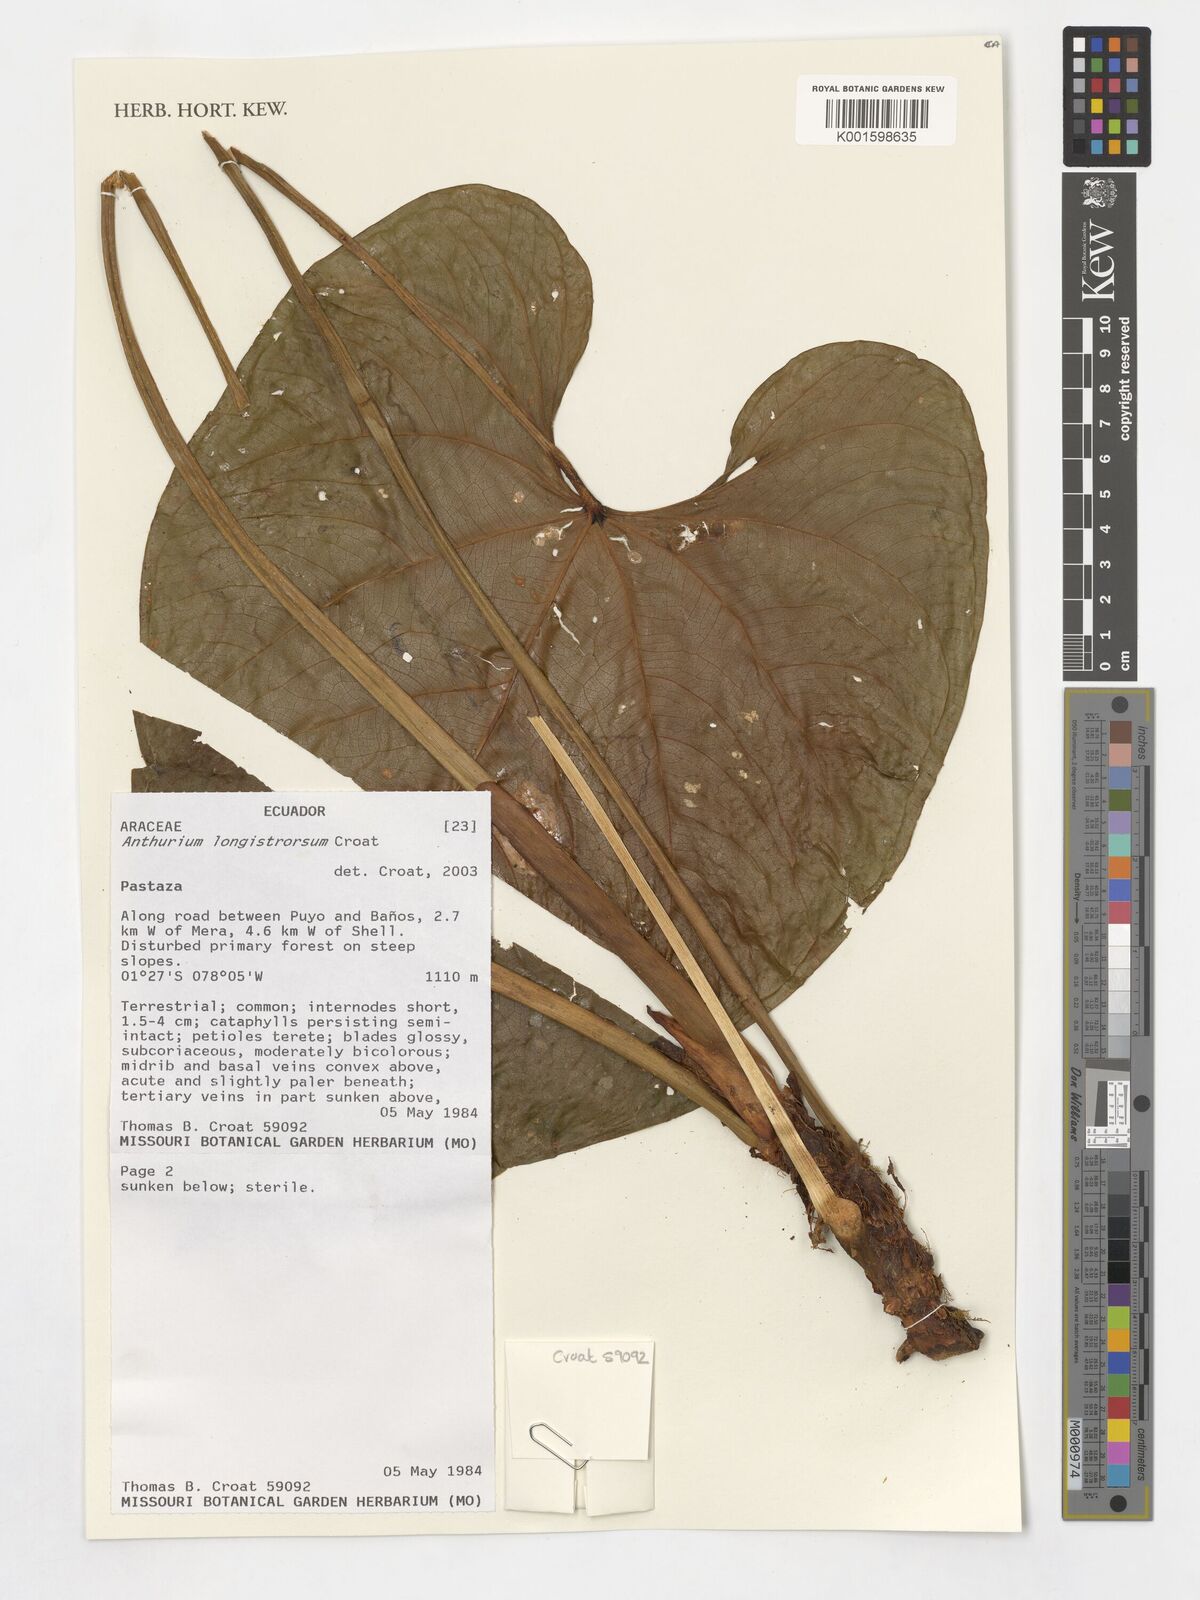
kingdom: Plantae
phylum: Tracheophyta
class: Liliopsida
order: Alismatales
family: Araceae
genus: Anthurium
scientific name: Anthurium
